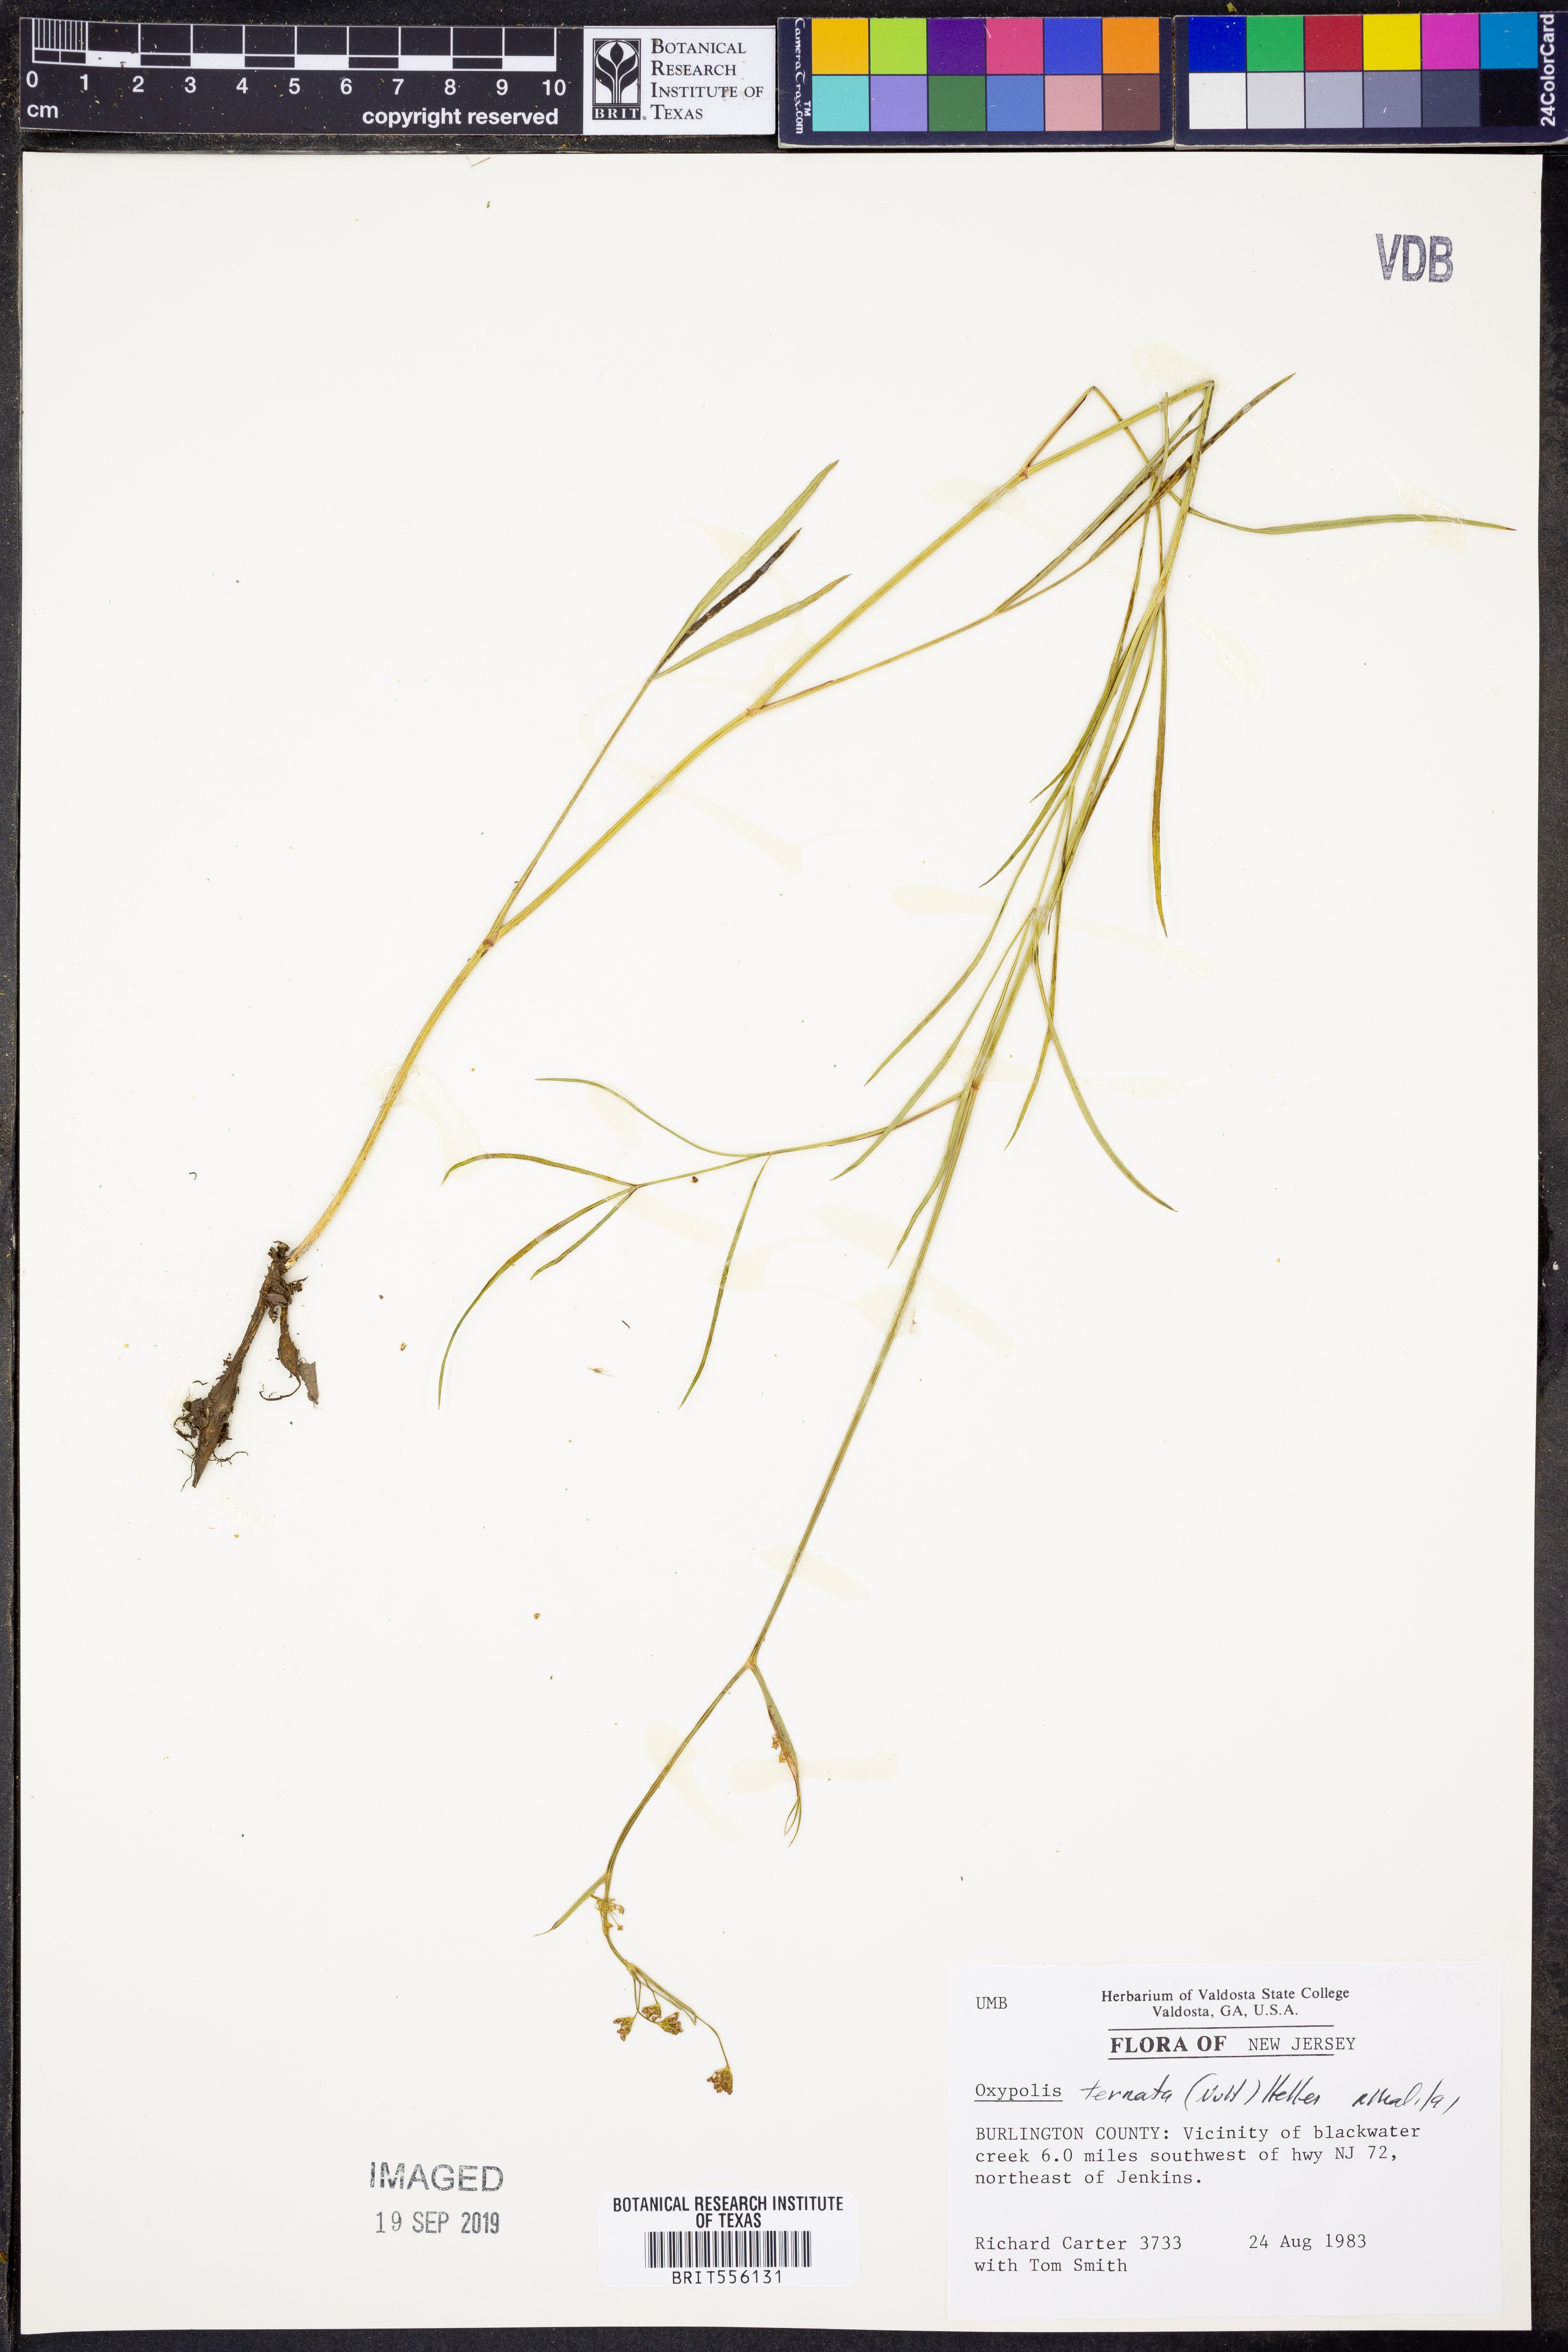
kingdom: Plantae
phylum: Tracheophyta
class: Magnoliopsida
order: Apiales
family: Apiaceae
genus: Oxypolis
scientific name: Oxypolis ternata
